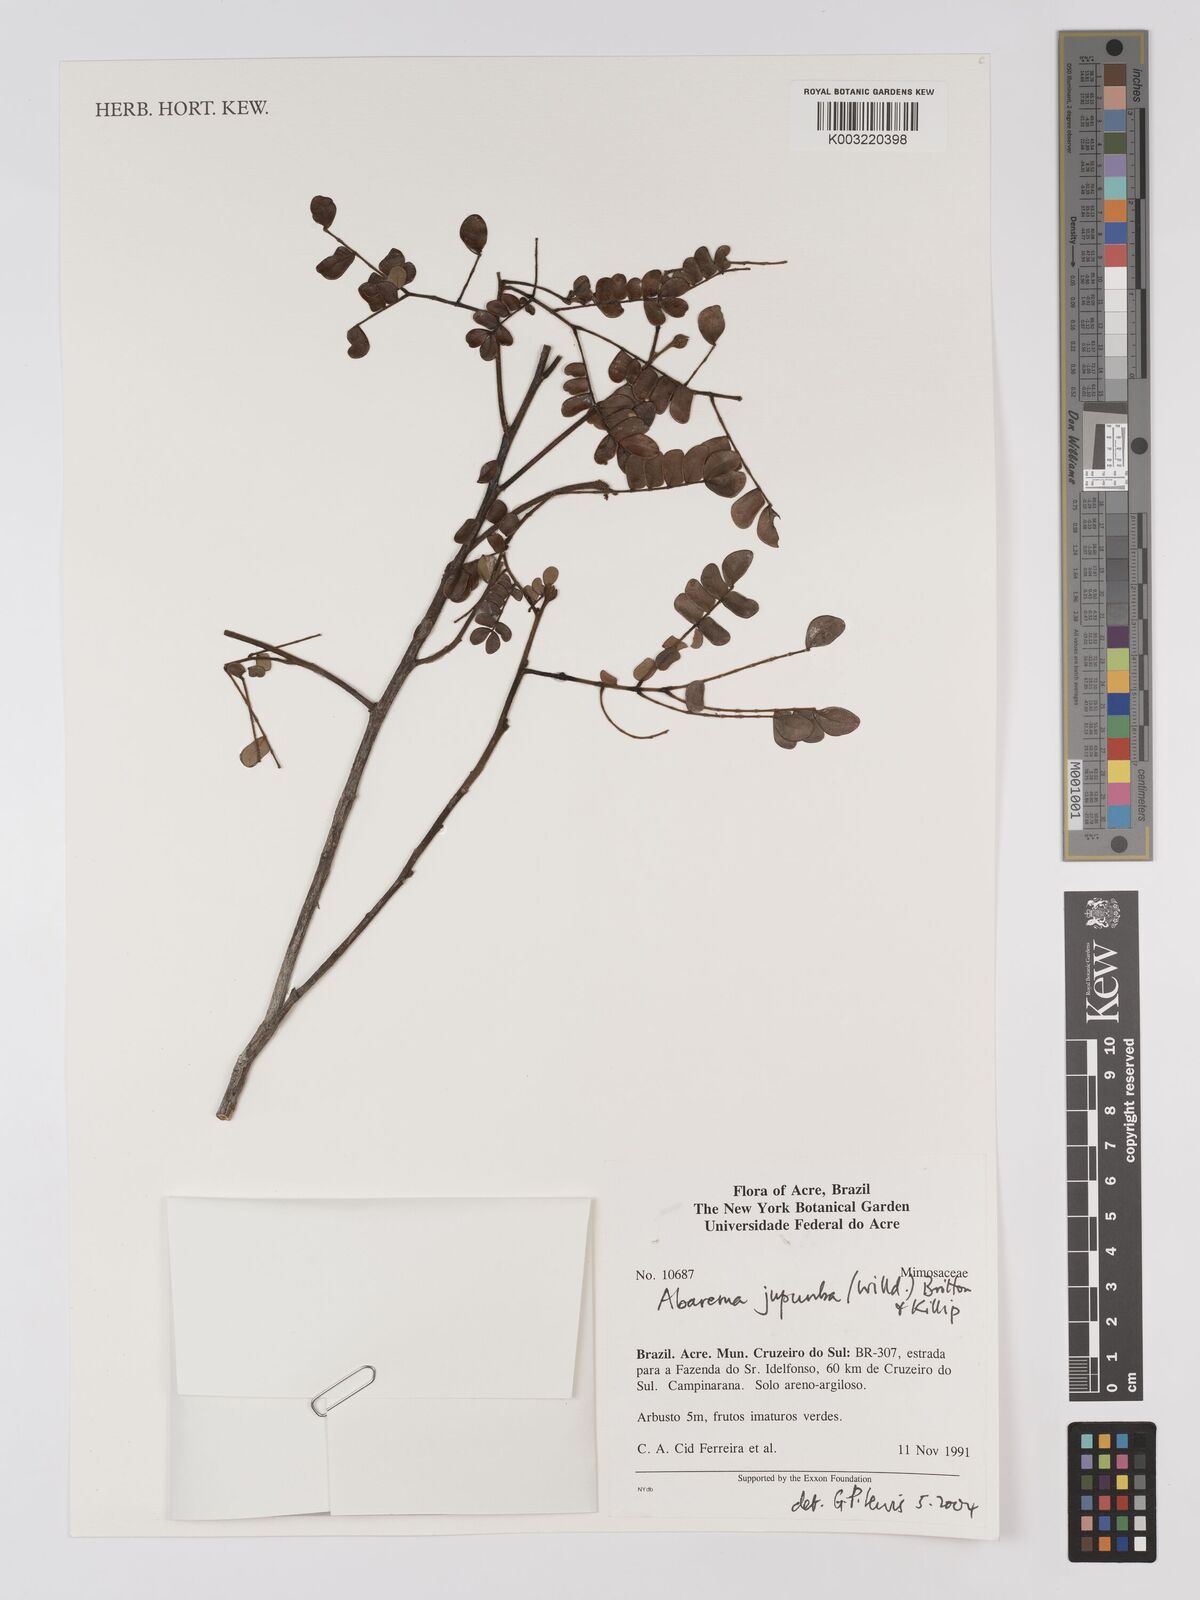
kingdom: Plantae
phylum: Tracheophyta
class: Magnoliopsida
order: Fabales
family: Fabaceae
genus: Jupunba
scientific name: Jupunba trapezifolia
